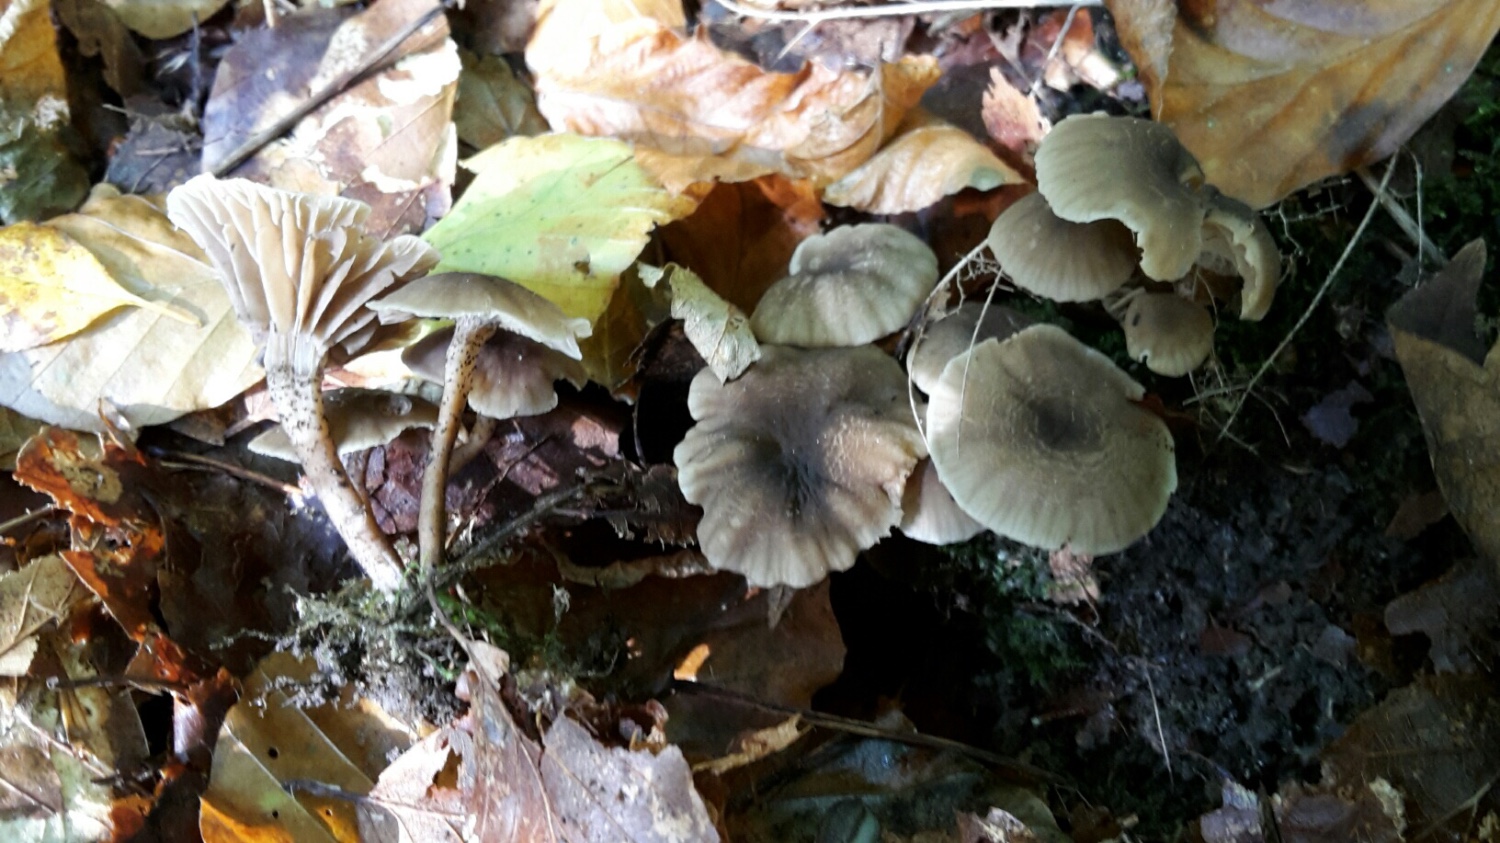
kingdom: Fungi
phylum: Basidiomycota
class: Agaricomycetes
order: Agaricales
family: Clavariaceae
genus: Hodophilus
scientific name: Hodophilus variabilipes
